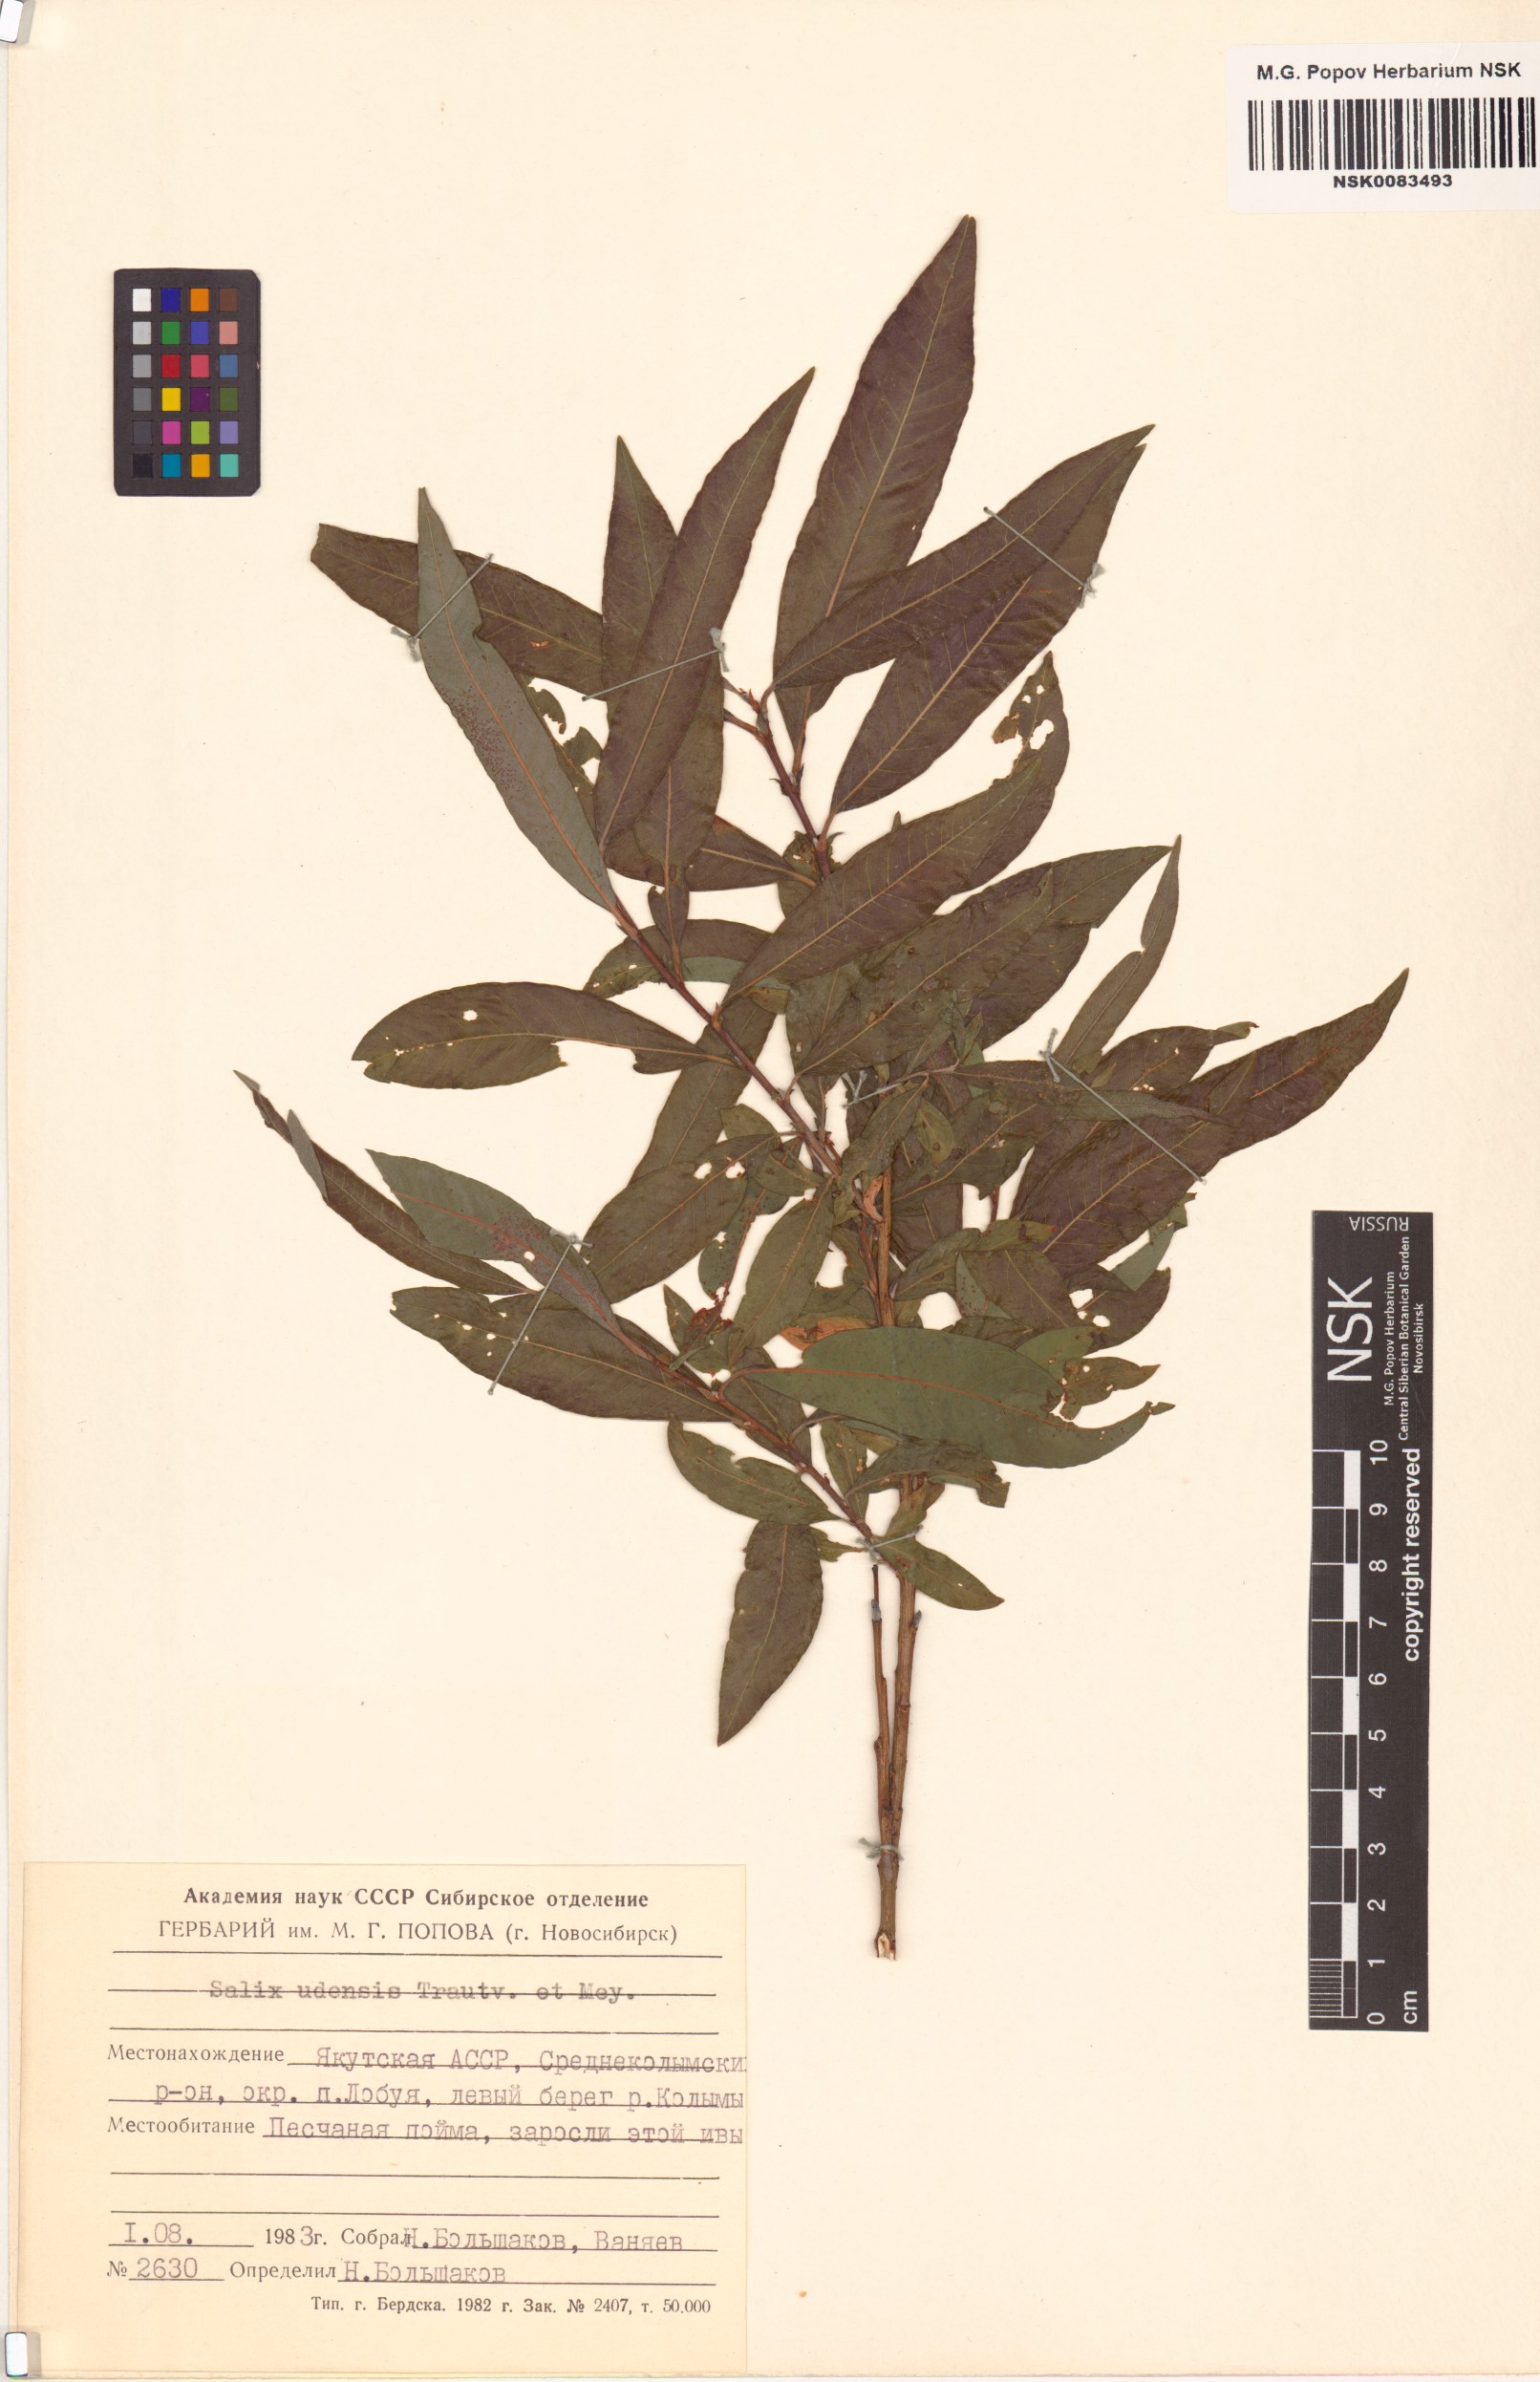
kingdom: Plantae
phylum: Tracheophyta
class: Magnoliopsida
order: Malpighiales
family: Salicaceae
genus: Salix
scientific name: Salix udensis
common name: Sachalin willow
